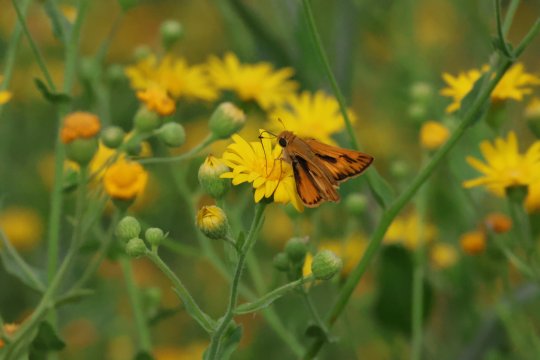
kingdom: Animalia
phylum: Arthropoda
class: Insecta
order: Lepidoptera
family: Hesperiidae
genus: Hylephila
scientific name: Hylephila phyleus
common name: Fiery Skipper
